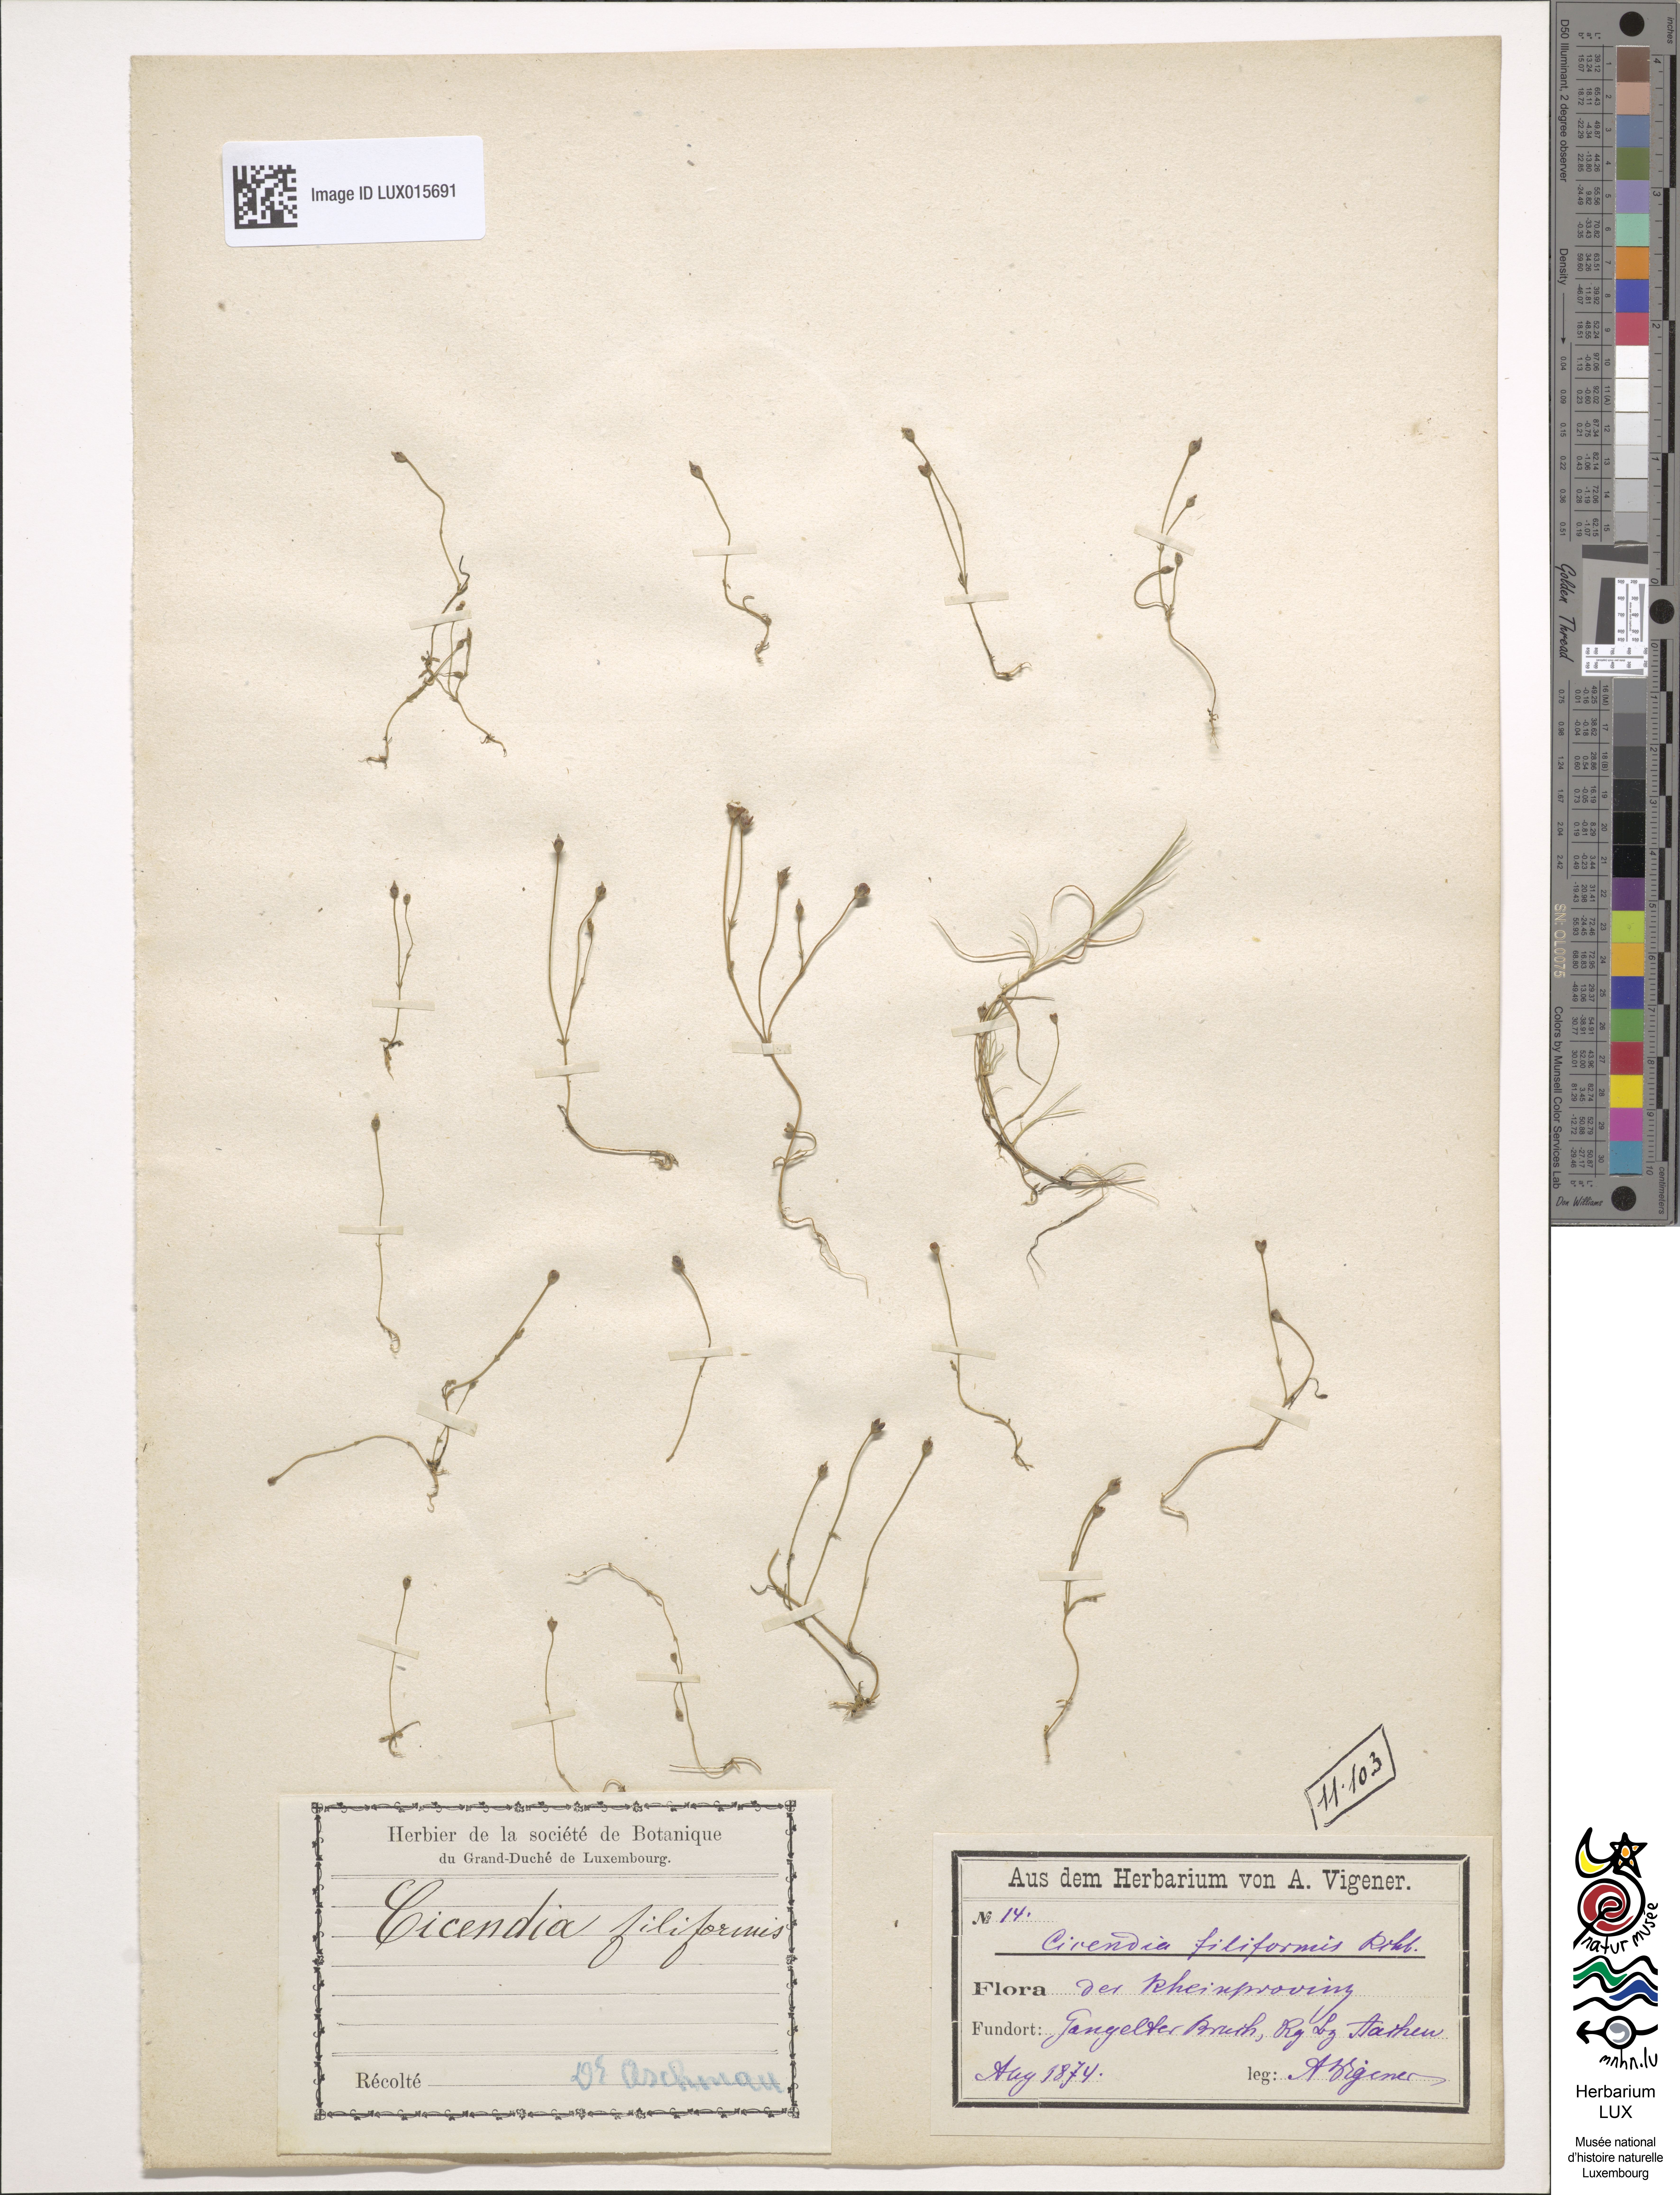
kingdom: Plantae
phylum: Tracheophyta
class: Magnoliopsida
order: Gentianales
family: Gentianaceae
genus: Cicendia
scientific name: Cicendia filiformis
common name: Yellow centaury
